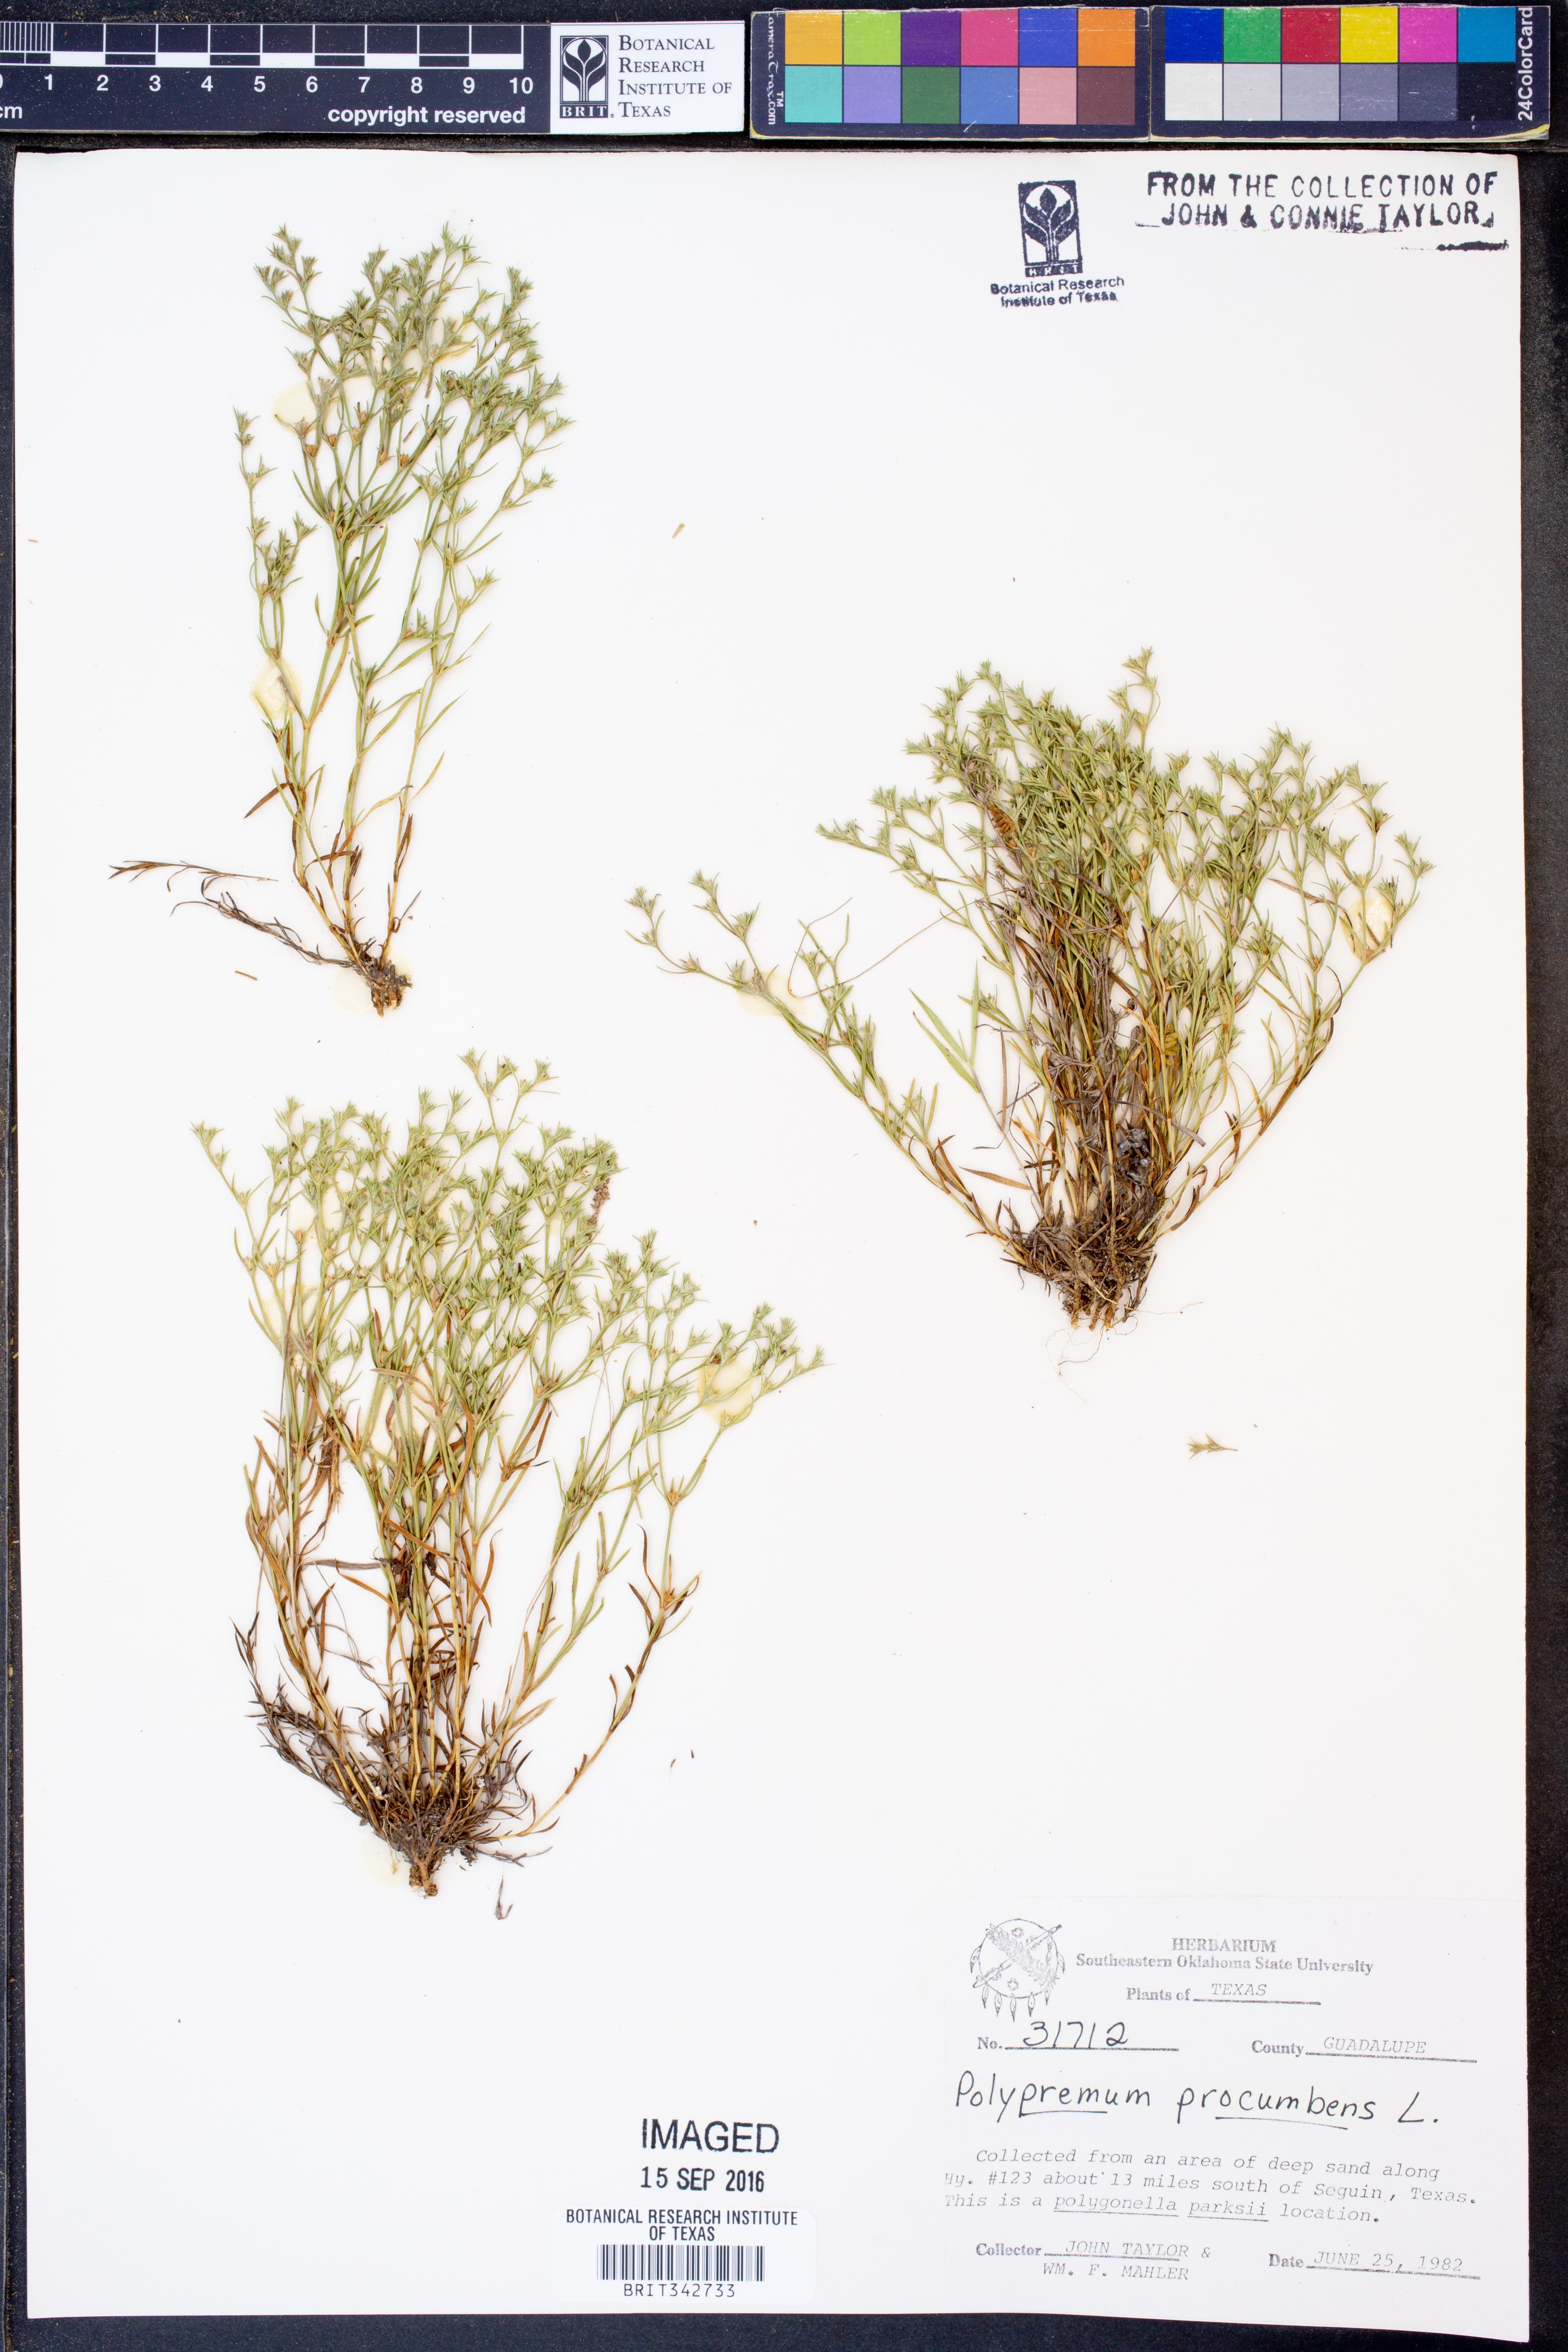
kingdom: Plantae
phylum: Tracheophyta
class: Magnoliopsida
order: Lamiales
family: Tetrachondraceae
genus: Polypremum
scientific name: Polypremum procumbens
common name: Juniper-leaf
